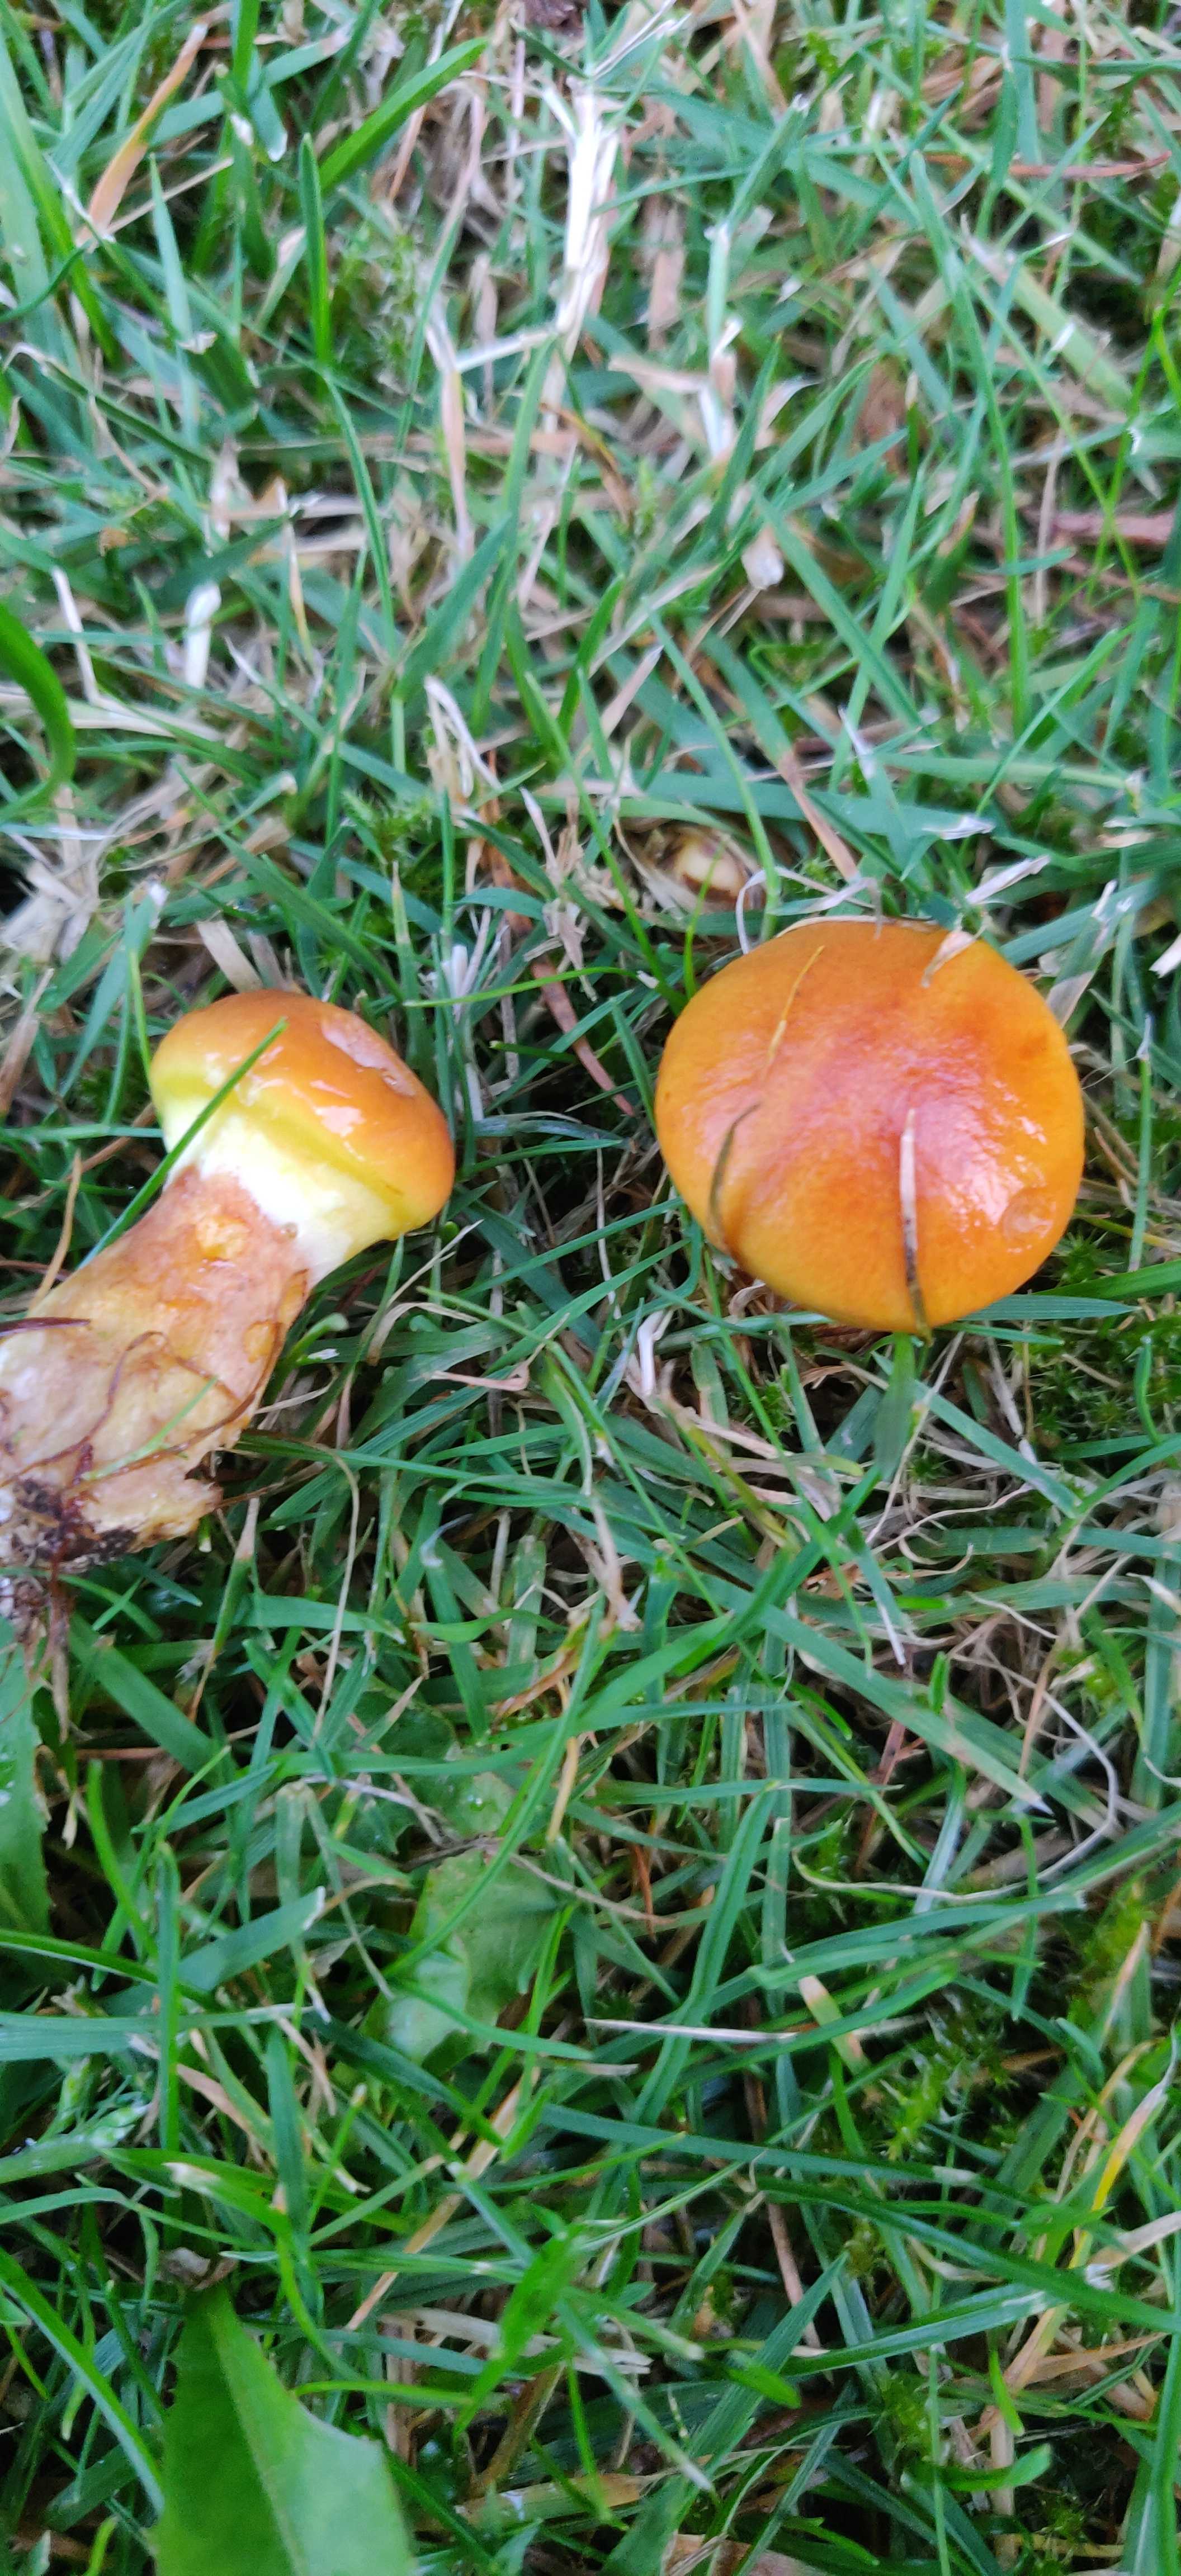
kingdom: Fungi
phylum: Basidiomycota
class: Agaricomycetes
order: Boletales
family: Suillaceae
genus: Suillus
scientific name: Suillus grevillei
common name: lærke-slimrørhat
